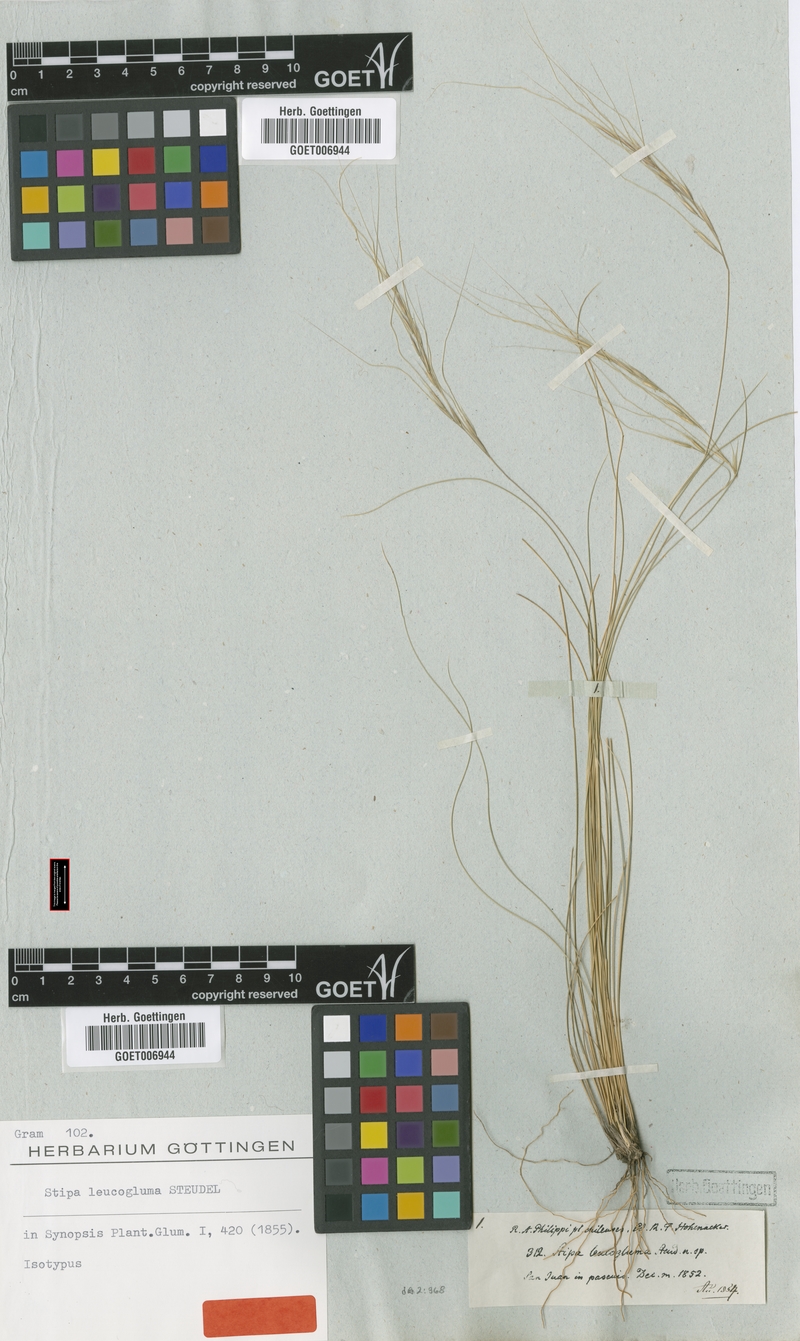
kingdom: Plantae
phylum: Tracheophyta
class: Liliopsida
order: Poales
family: Poaceae
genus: Nassella
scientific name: Nassella filiculmis
